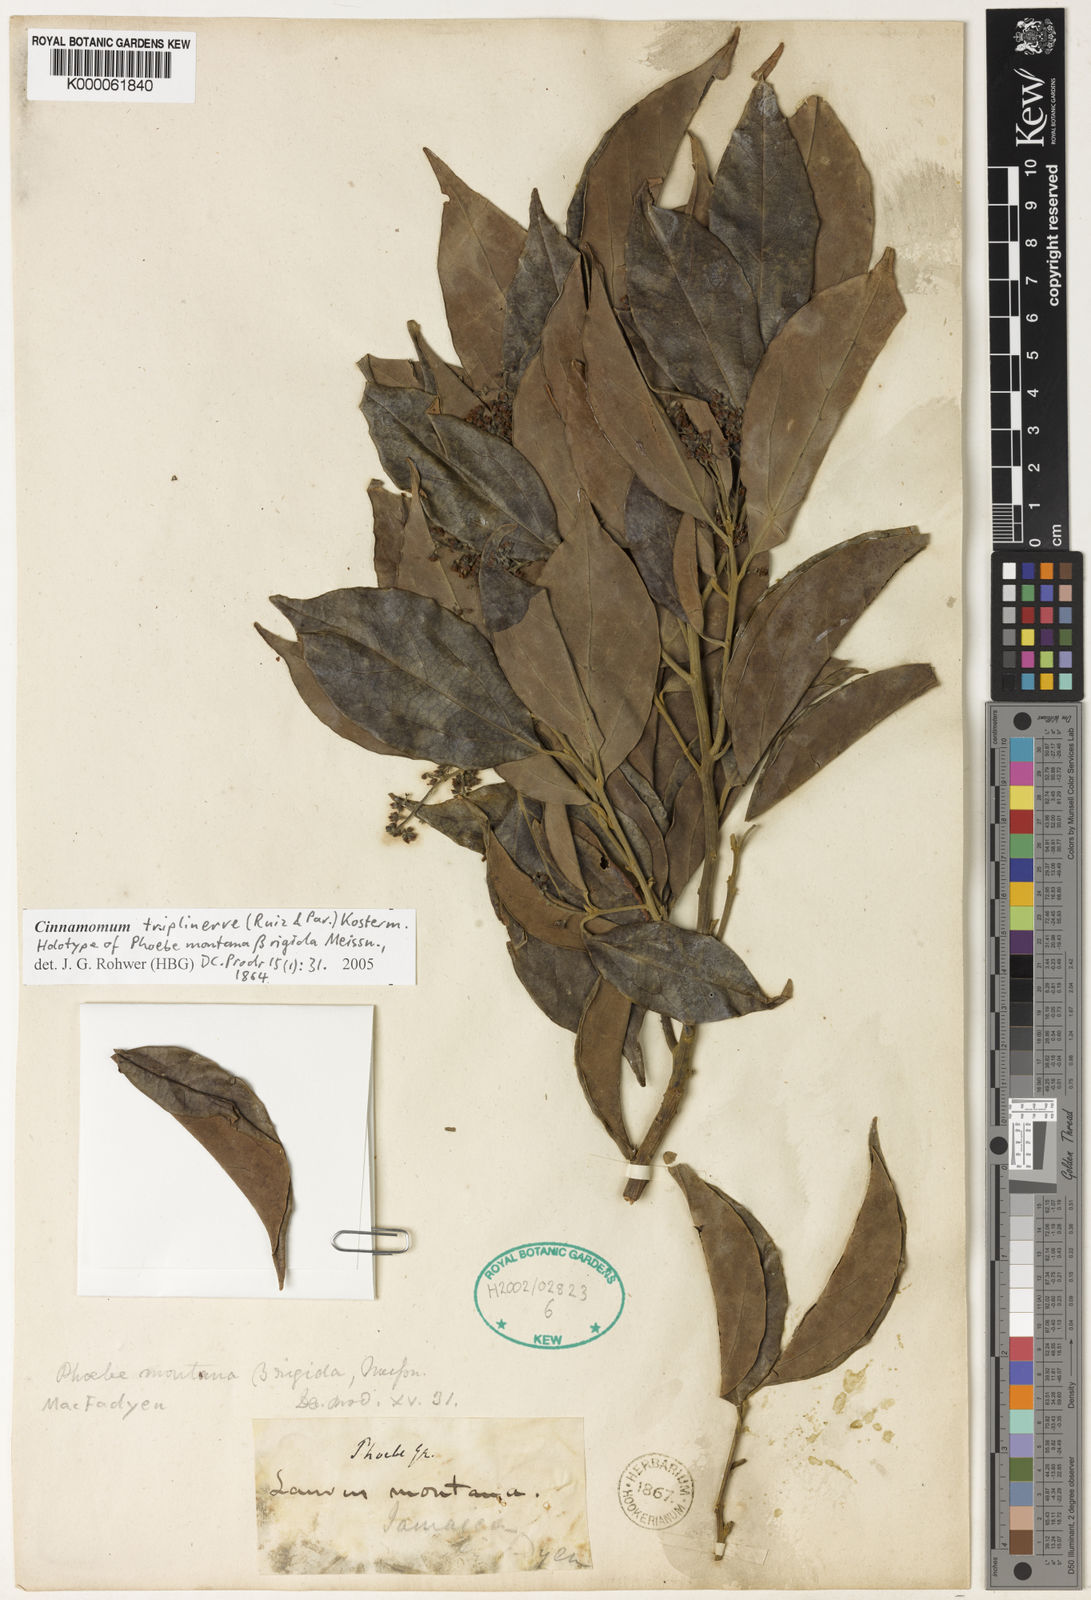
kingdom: Plantae
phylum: Tracheophyta
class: Magnoliopsida
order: Laurales
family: Lauraceae
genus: Aiouea
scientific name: Aiouea montana
